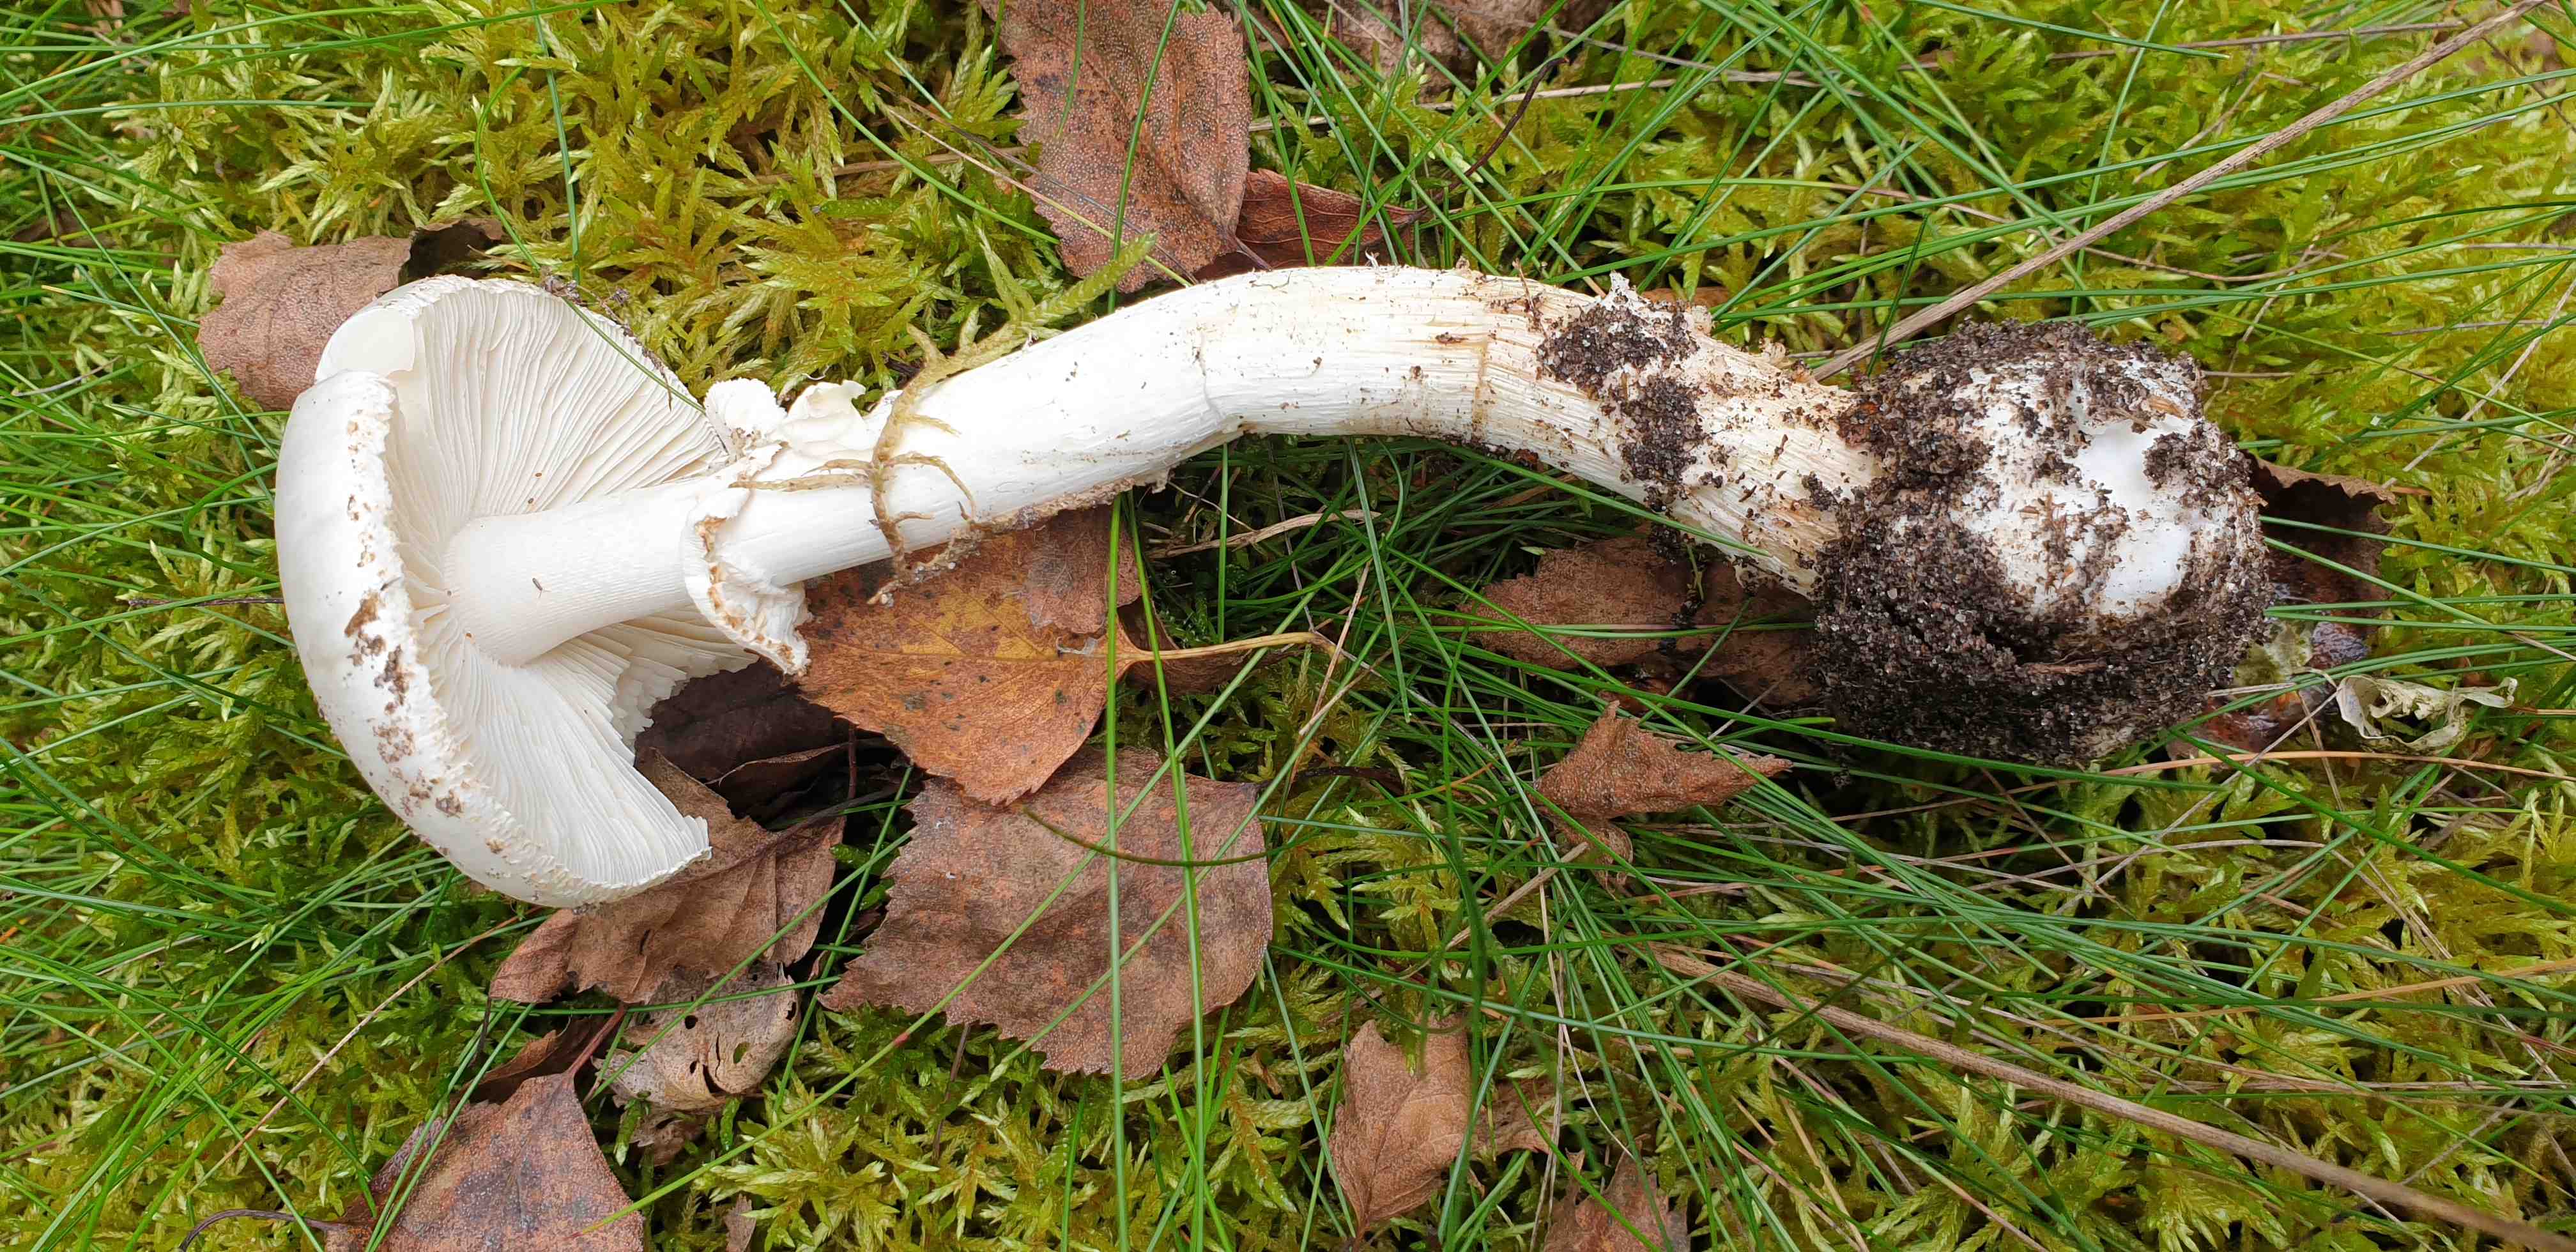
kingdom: Fungi
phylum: Basidiomycota
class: Agaricomycetes
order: Agaricales
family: Amanitaceae
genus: Amanita
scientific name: Amanita citrina
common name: False death-cap
